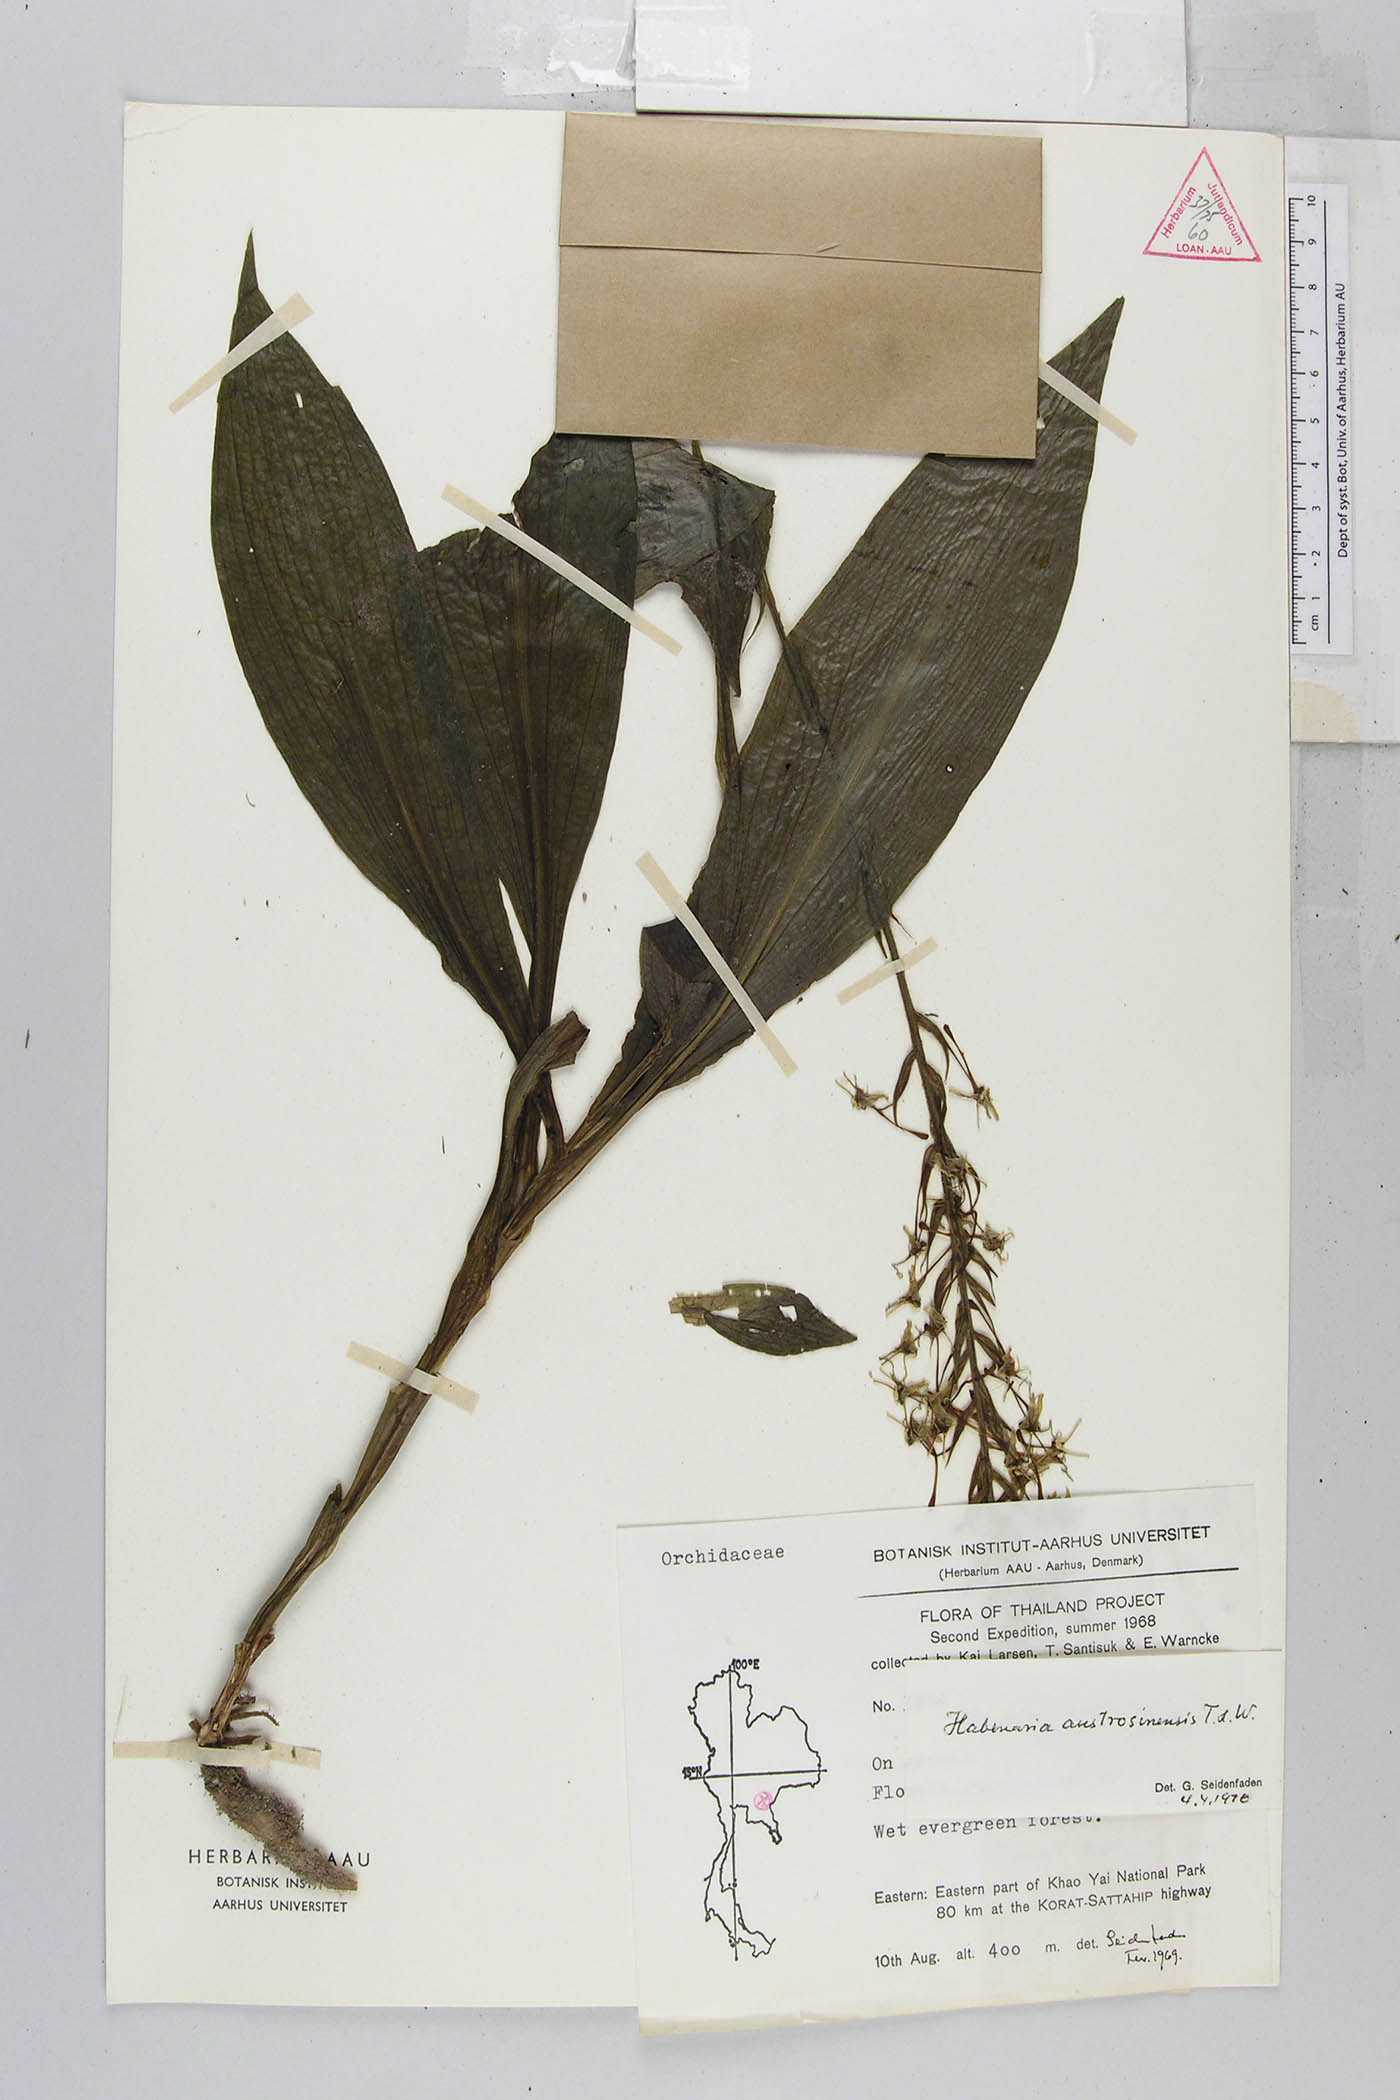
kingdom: Plantae
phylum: Tracheophyta
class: Liliopsida
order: Asparagales
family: Orchidaceae
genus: Habenaria
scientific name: Habenaria austrosinensis
